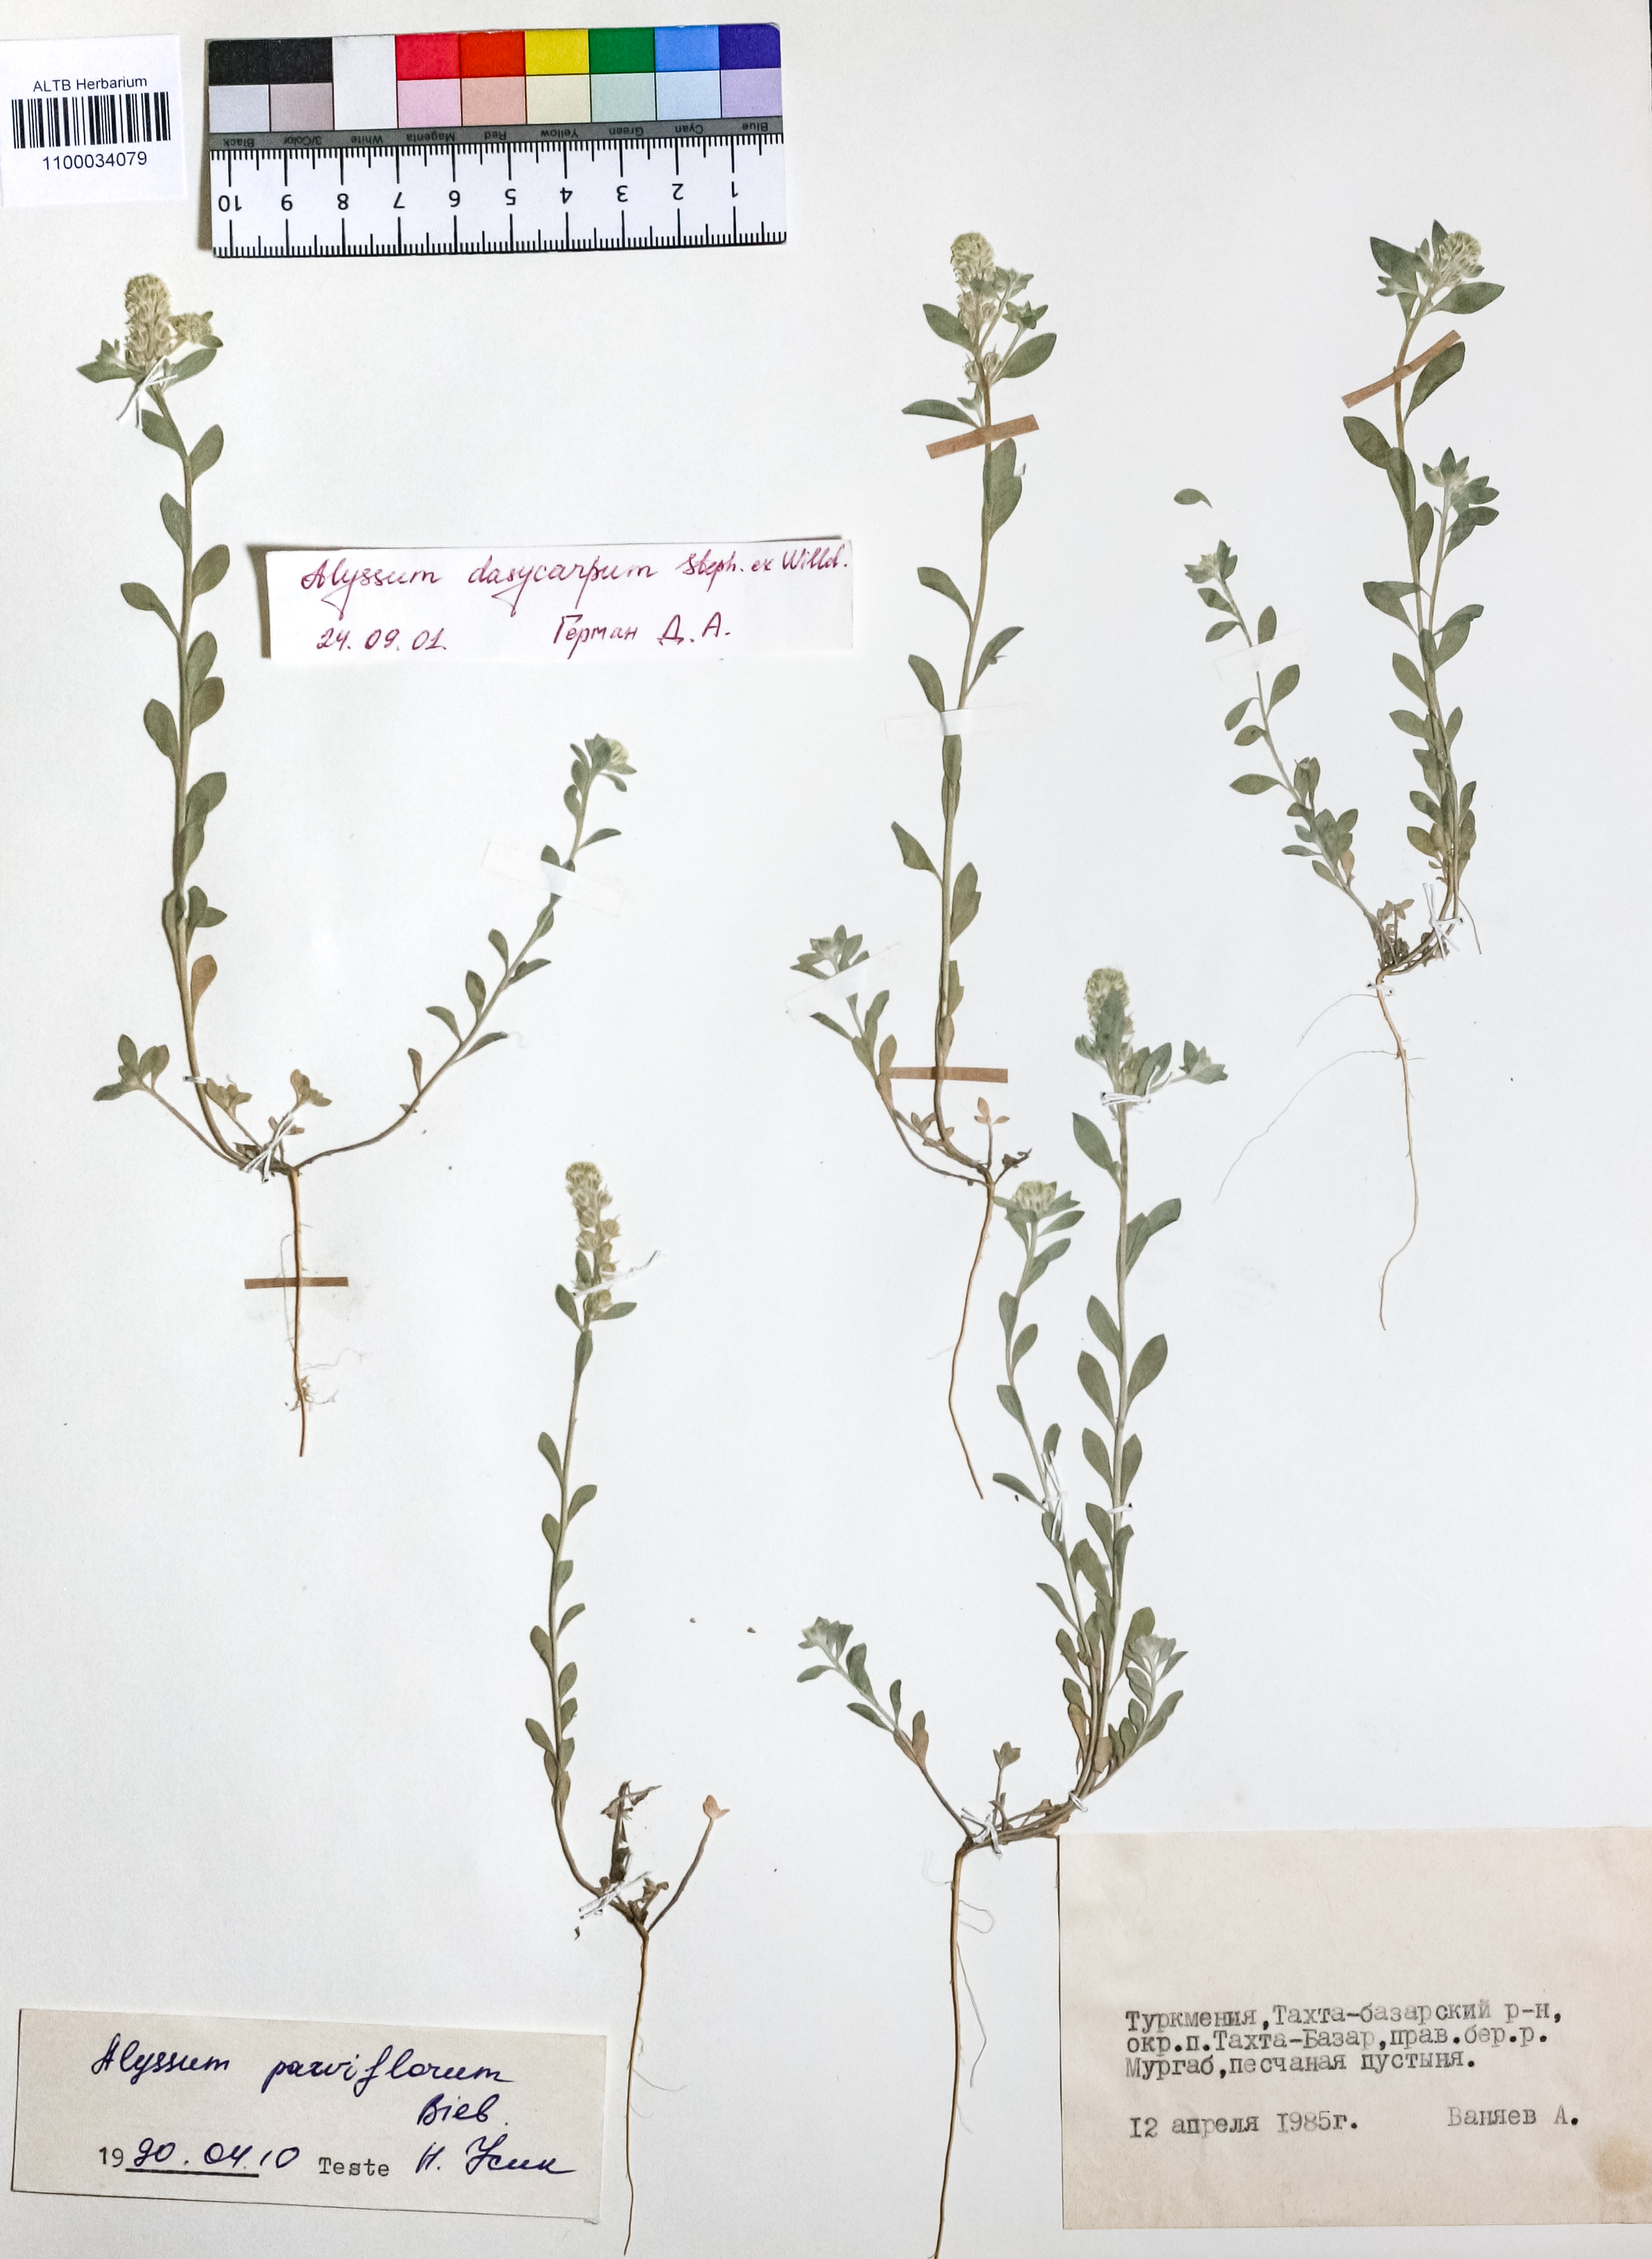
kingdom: Plantae
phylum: Tracheophyta
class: Magnoliopsida
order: Brassicales
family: Brassicaceae
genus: Alyssum
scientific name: Alyssum dasycarpum
